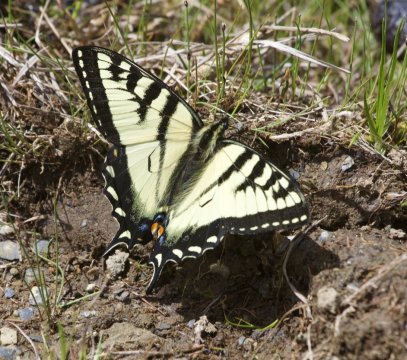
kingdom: Animalia
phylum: Arthropoda
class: Insecta
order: Lepidoptera
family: Papilionidae
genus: Pterourus
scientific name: Pterourus canadensis
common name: Canadian Tiger Swallowtail
